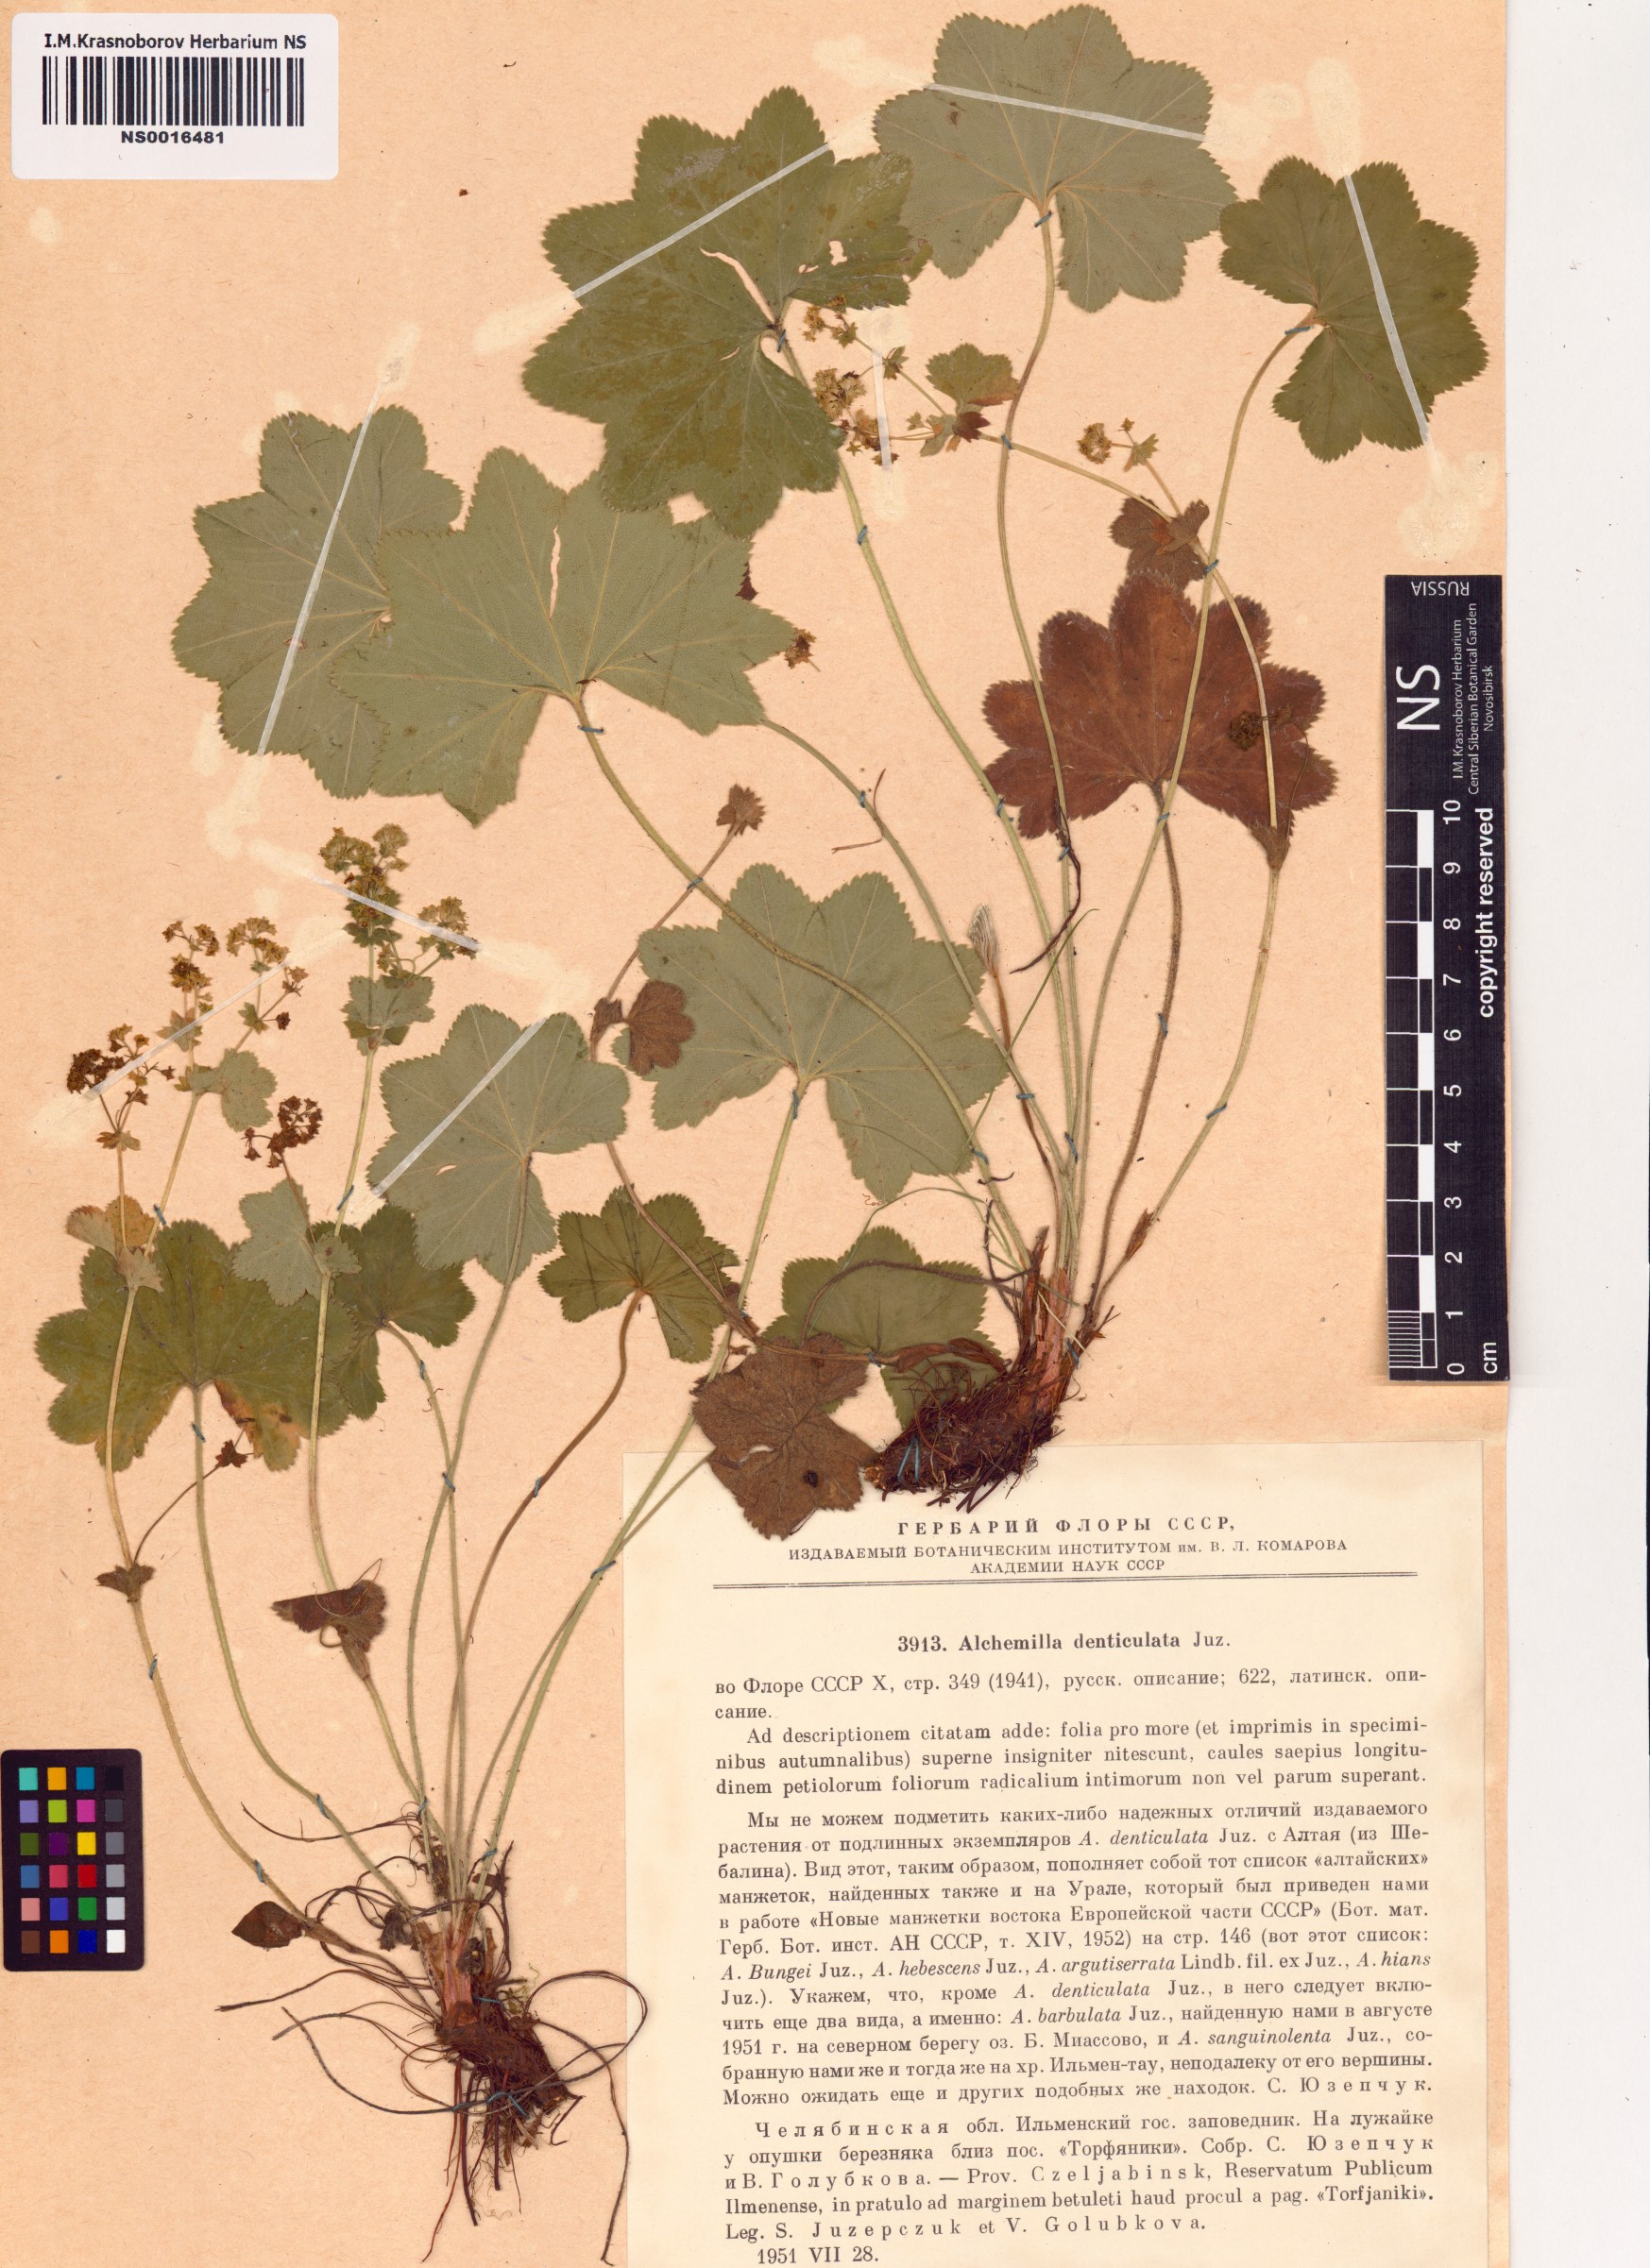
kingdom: Plantae
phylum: Tracheophyta
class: Magnoliopsida
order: Rosales
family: Rosaceae
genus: Alchemilla
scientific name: Alchemilla denticulata
